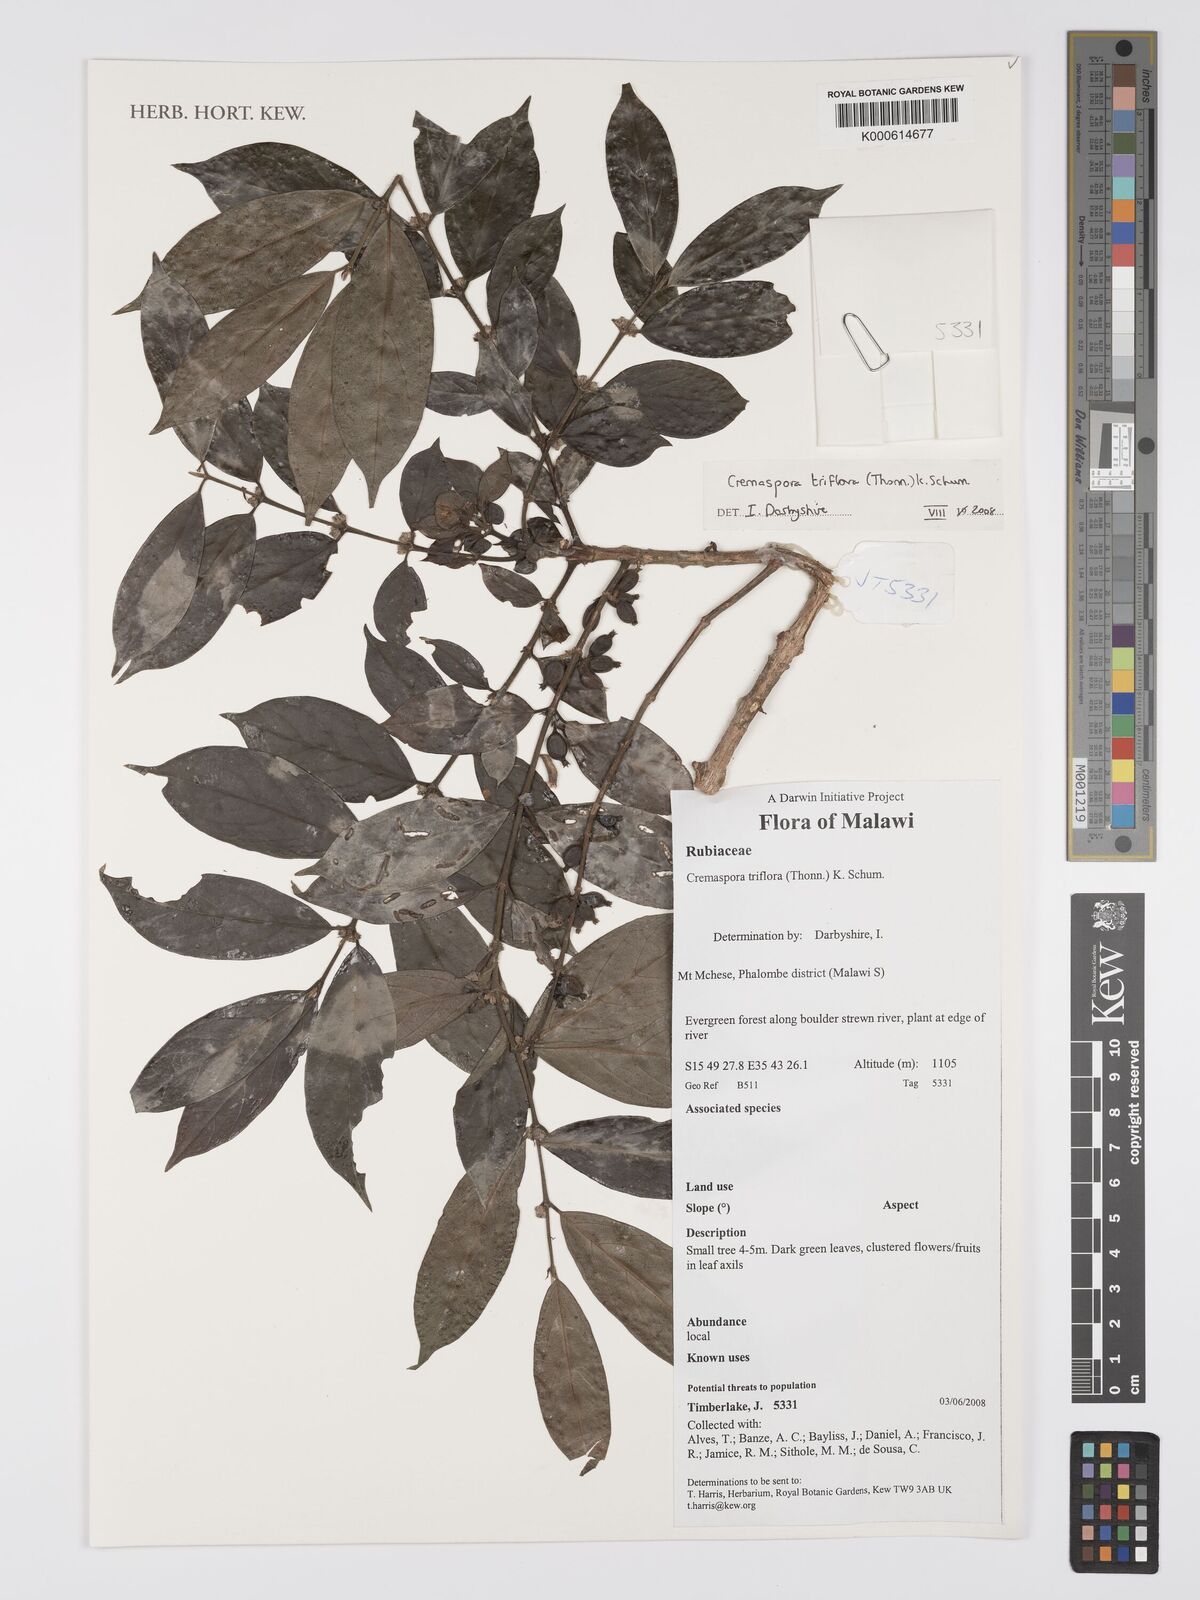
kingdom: Plantae
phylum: Tracheophyta
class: Magnoliopsida
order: Gentianales
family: Rubiaceae
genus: Cremaspora
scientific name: Cremaspora triflora
